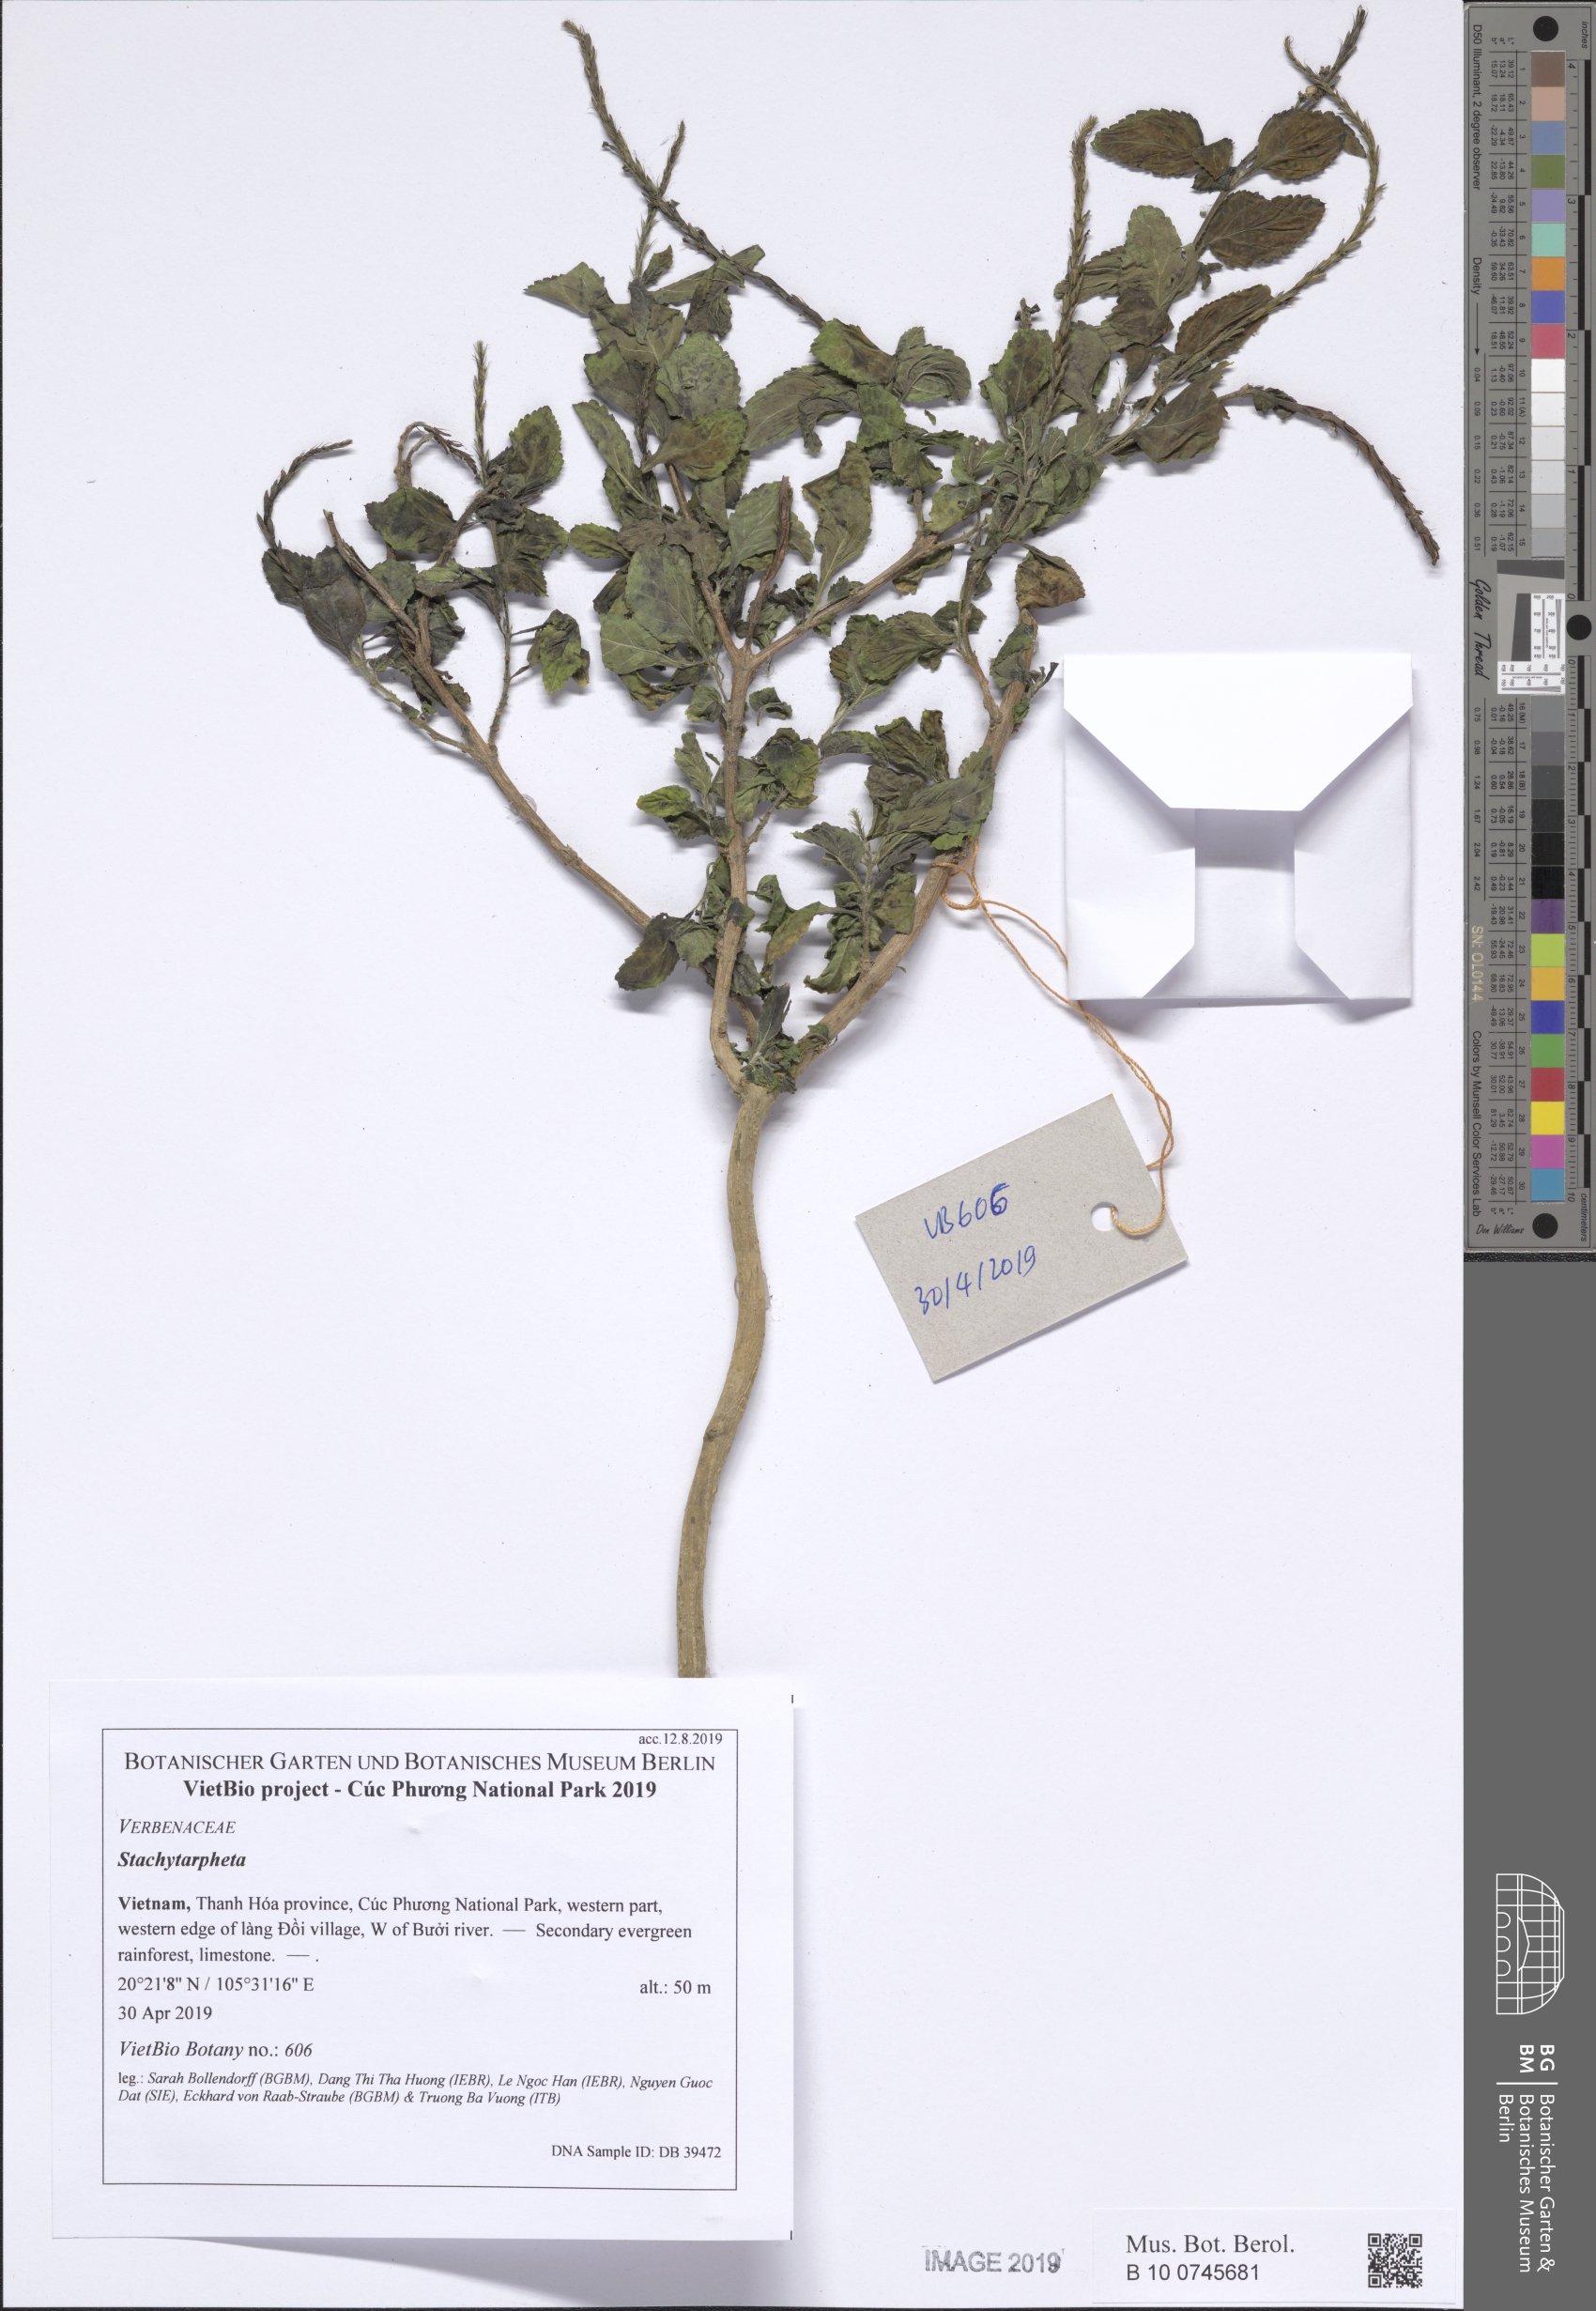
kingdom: Plantae
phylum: Tracheophyta
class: Magnoliopsida
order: Lamiales
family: Verbenaceae
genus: Stachytarpheta
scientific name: Stachytarpheta
